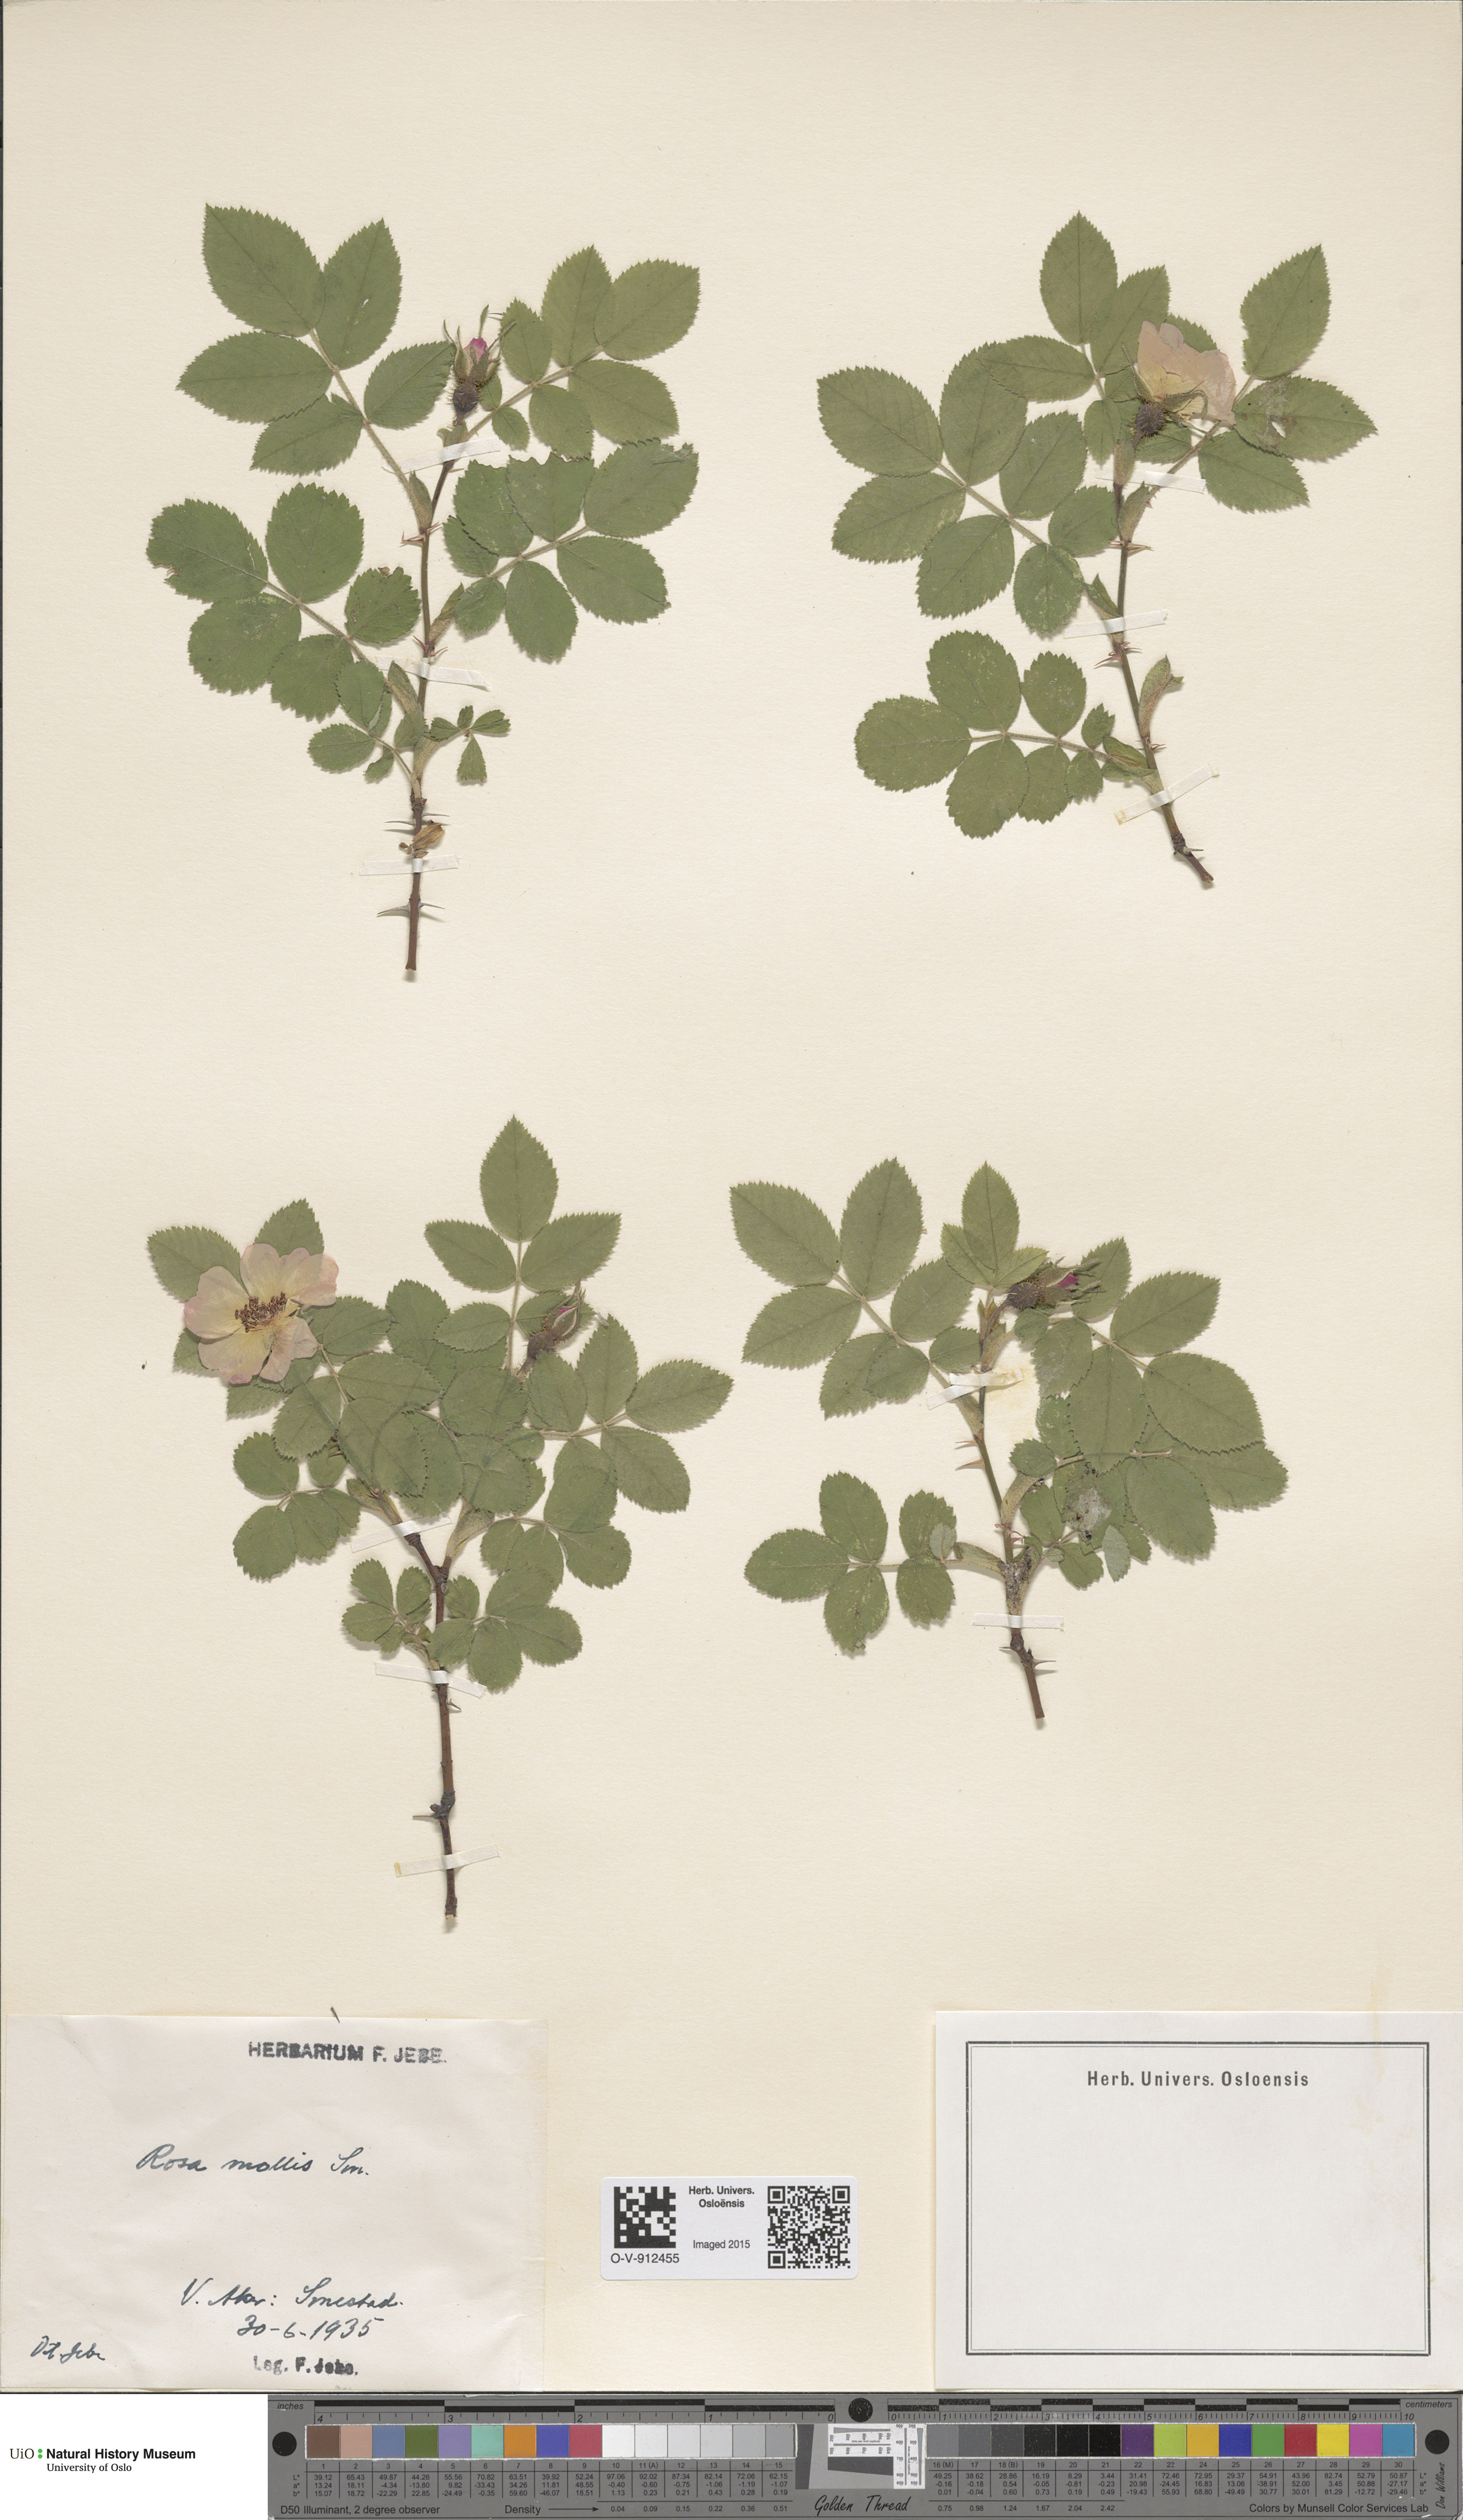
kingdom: Plantae
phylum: Tracheophyta
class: Magnoliopsida
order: Rosales
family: Rosaceae
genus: Rosa
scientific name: Rosa mollis
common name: Rose
